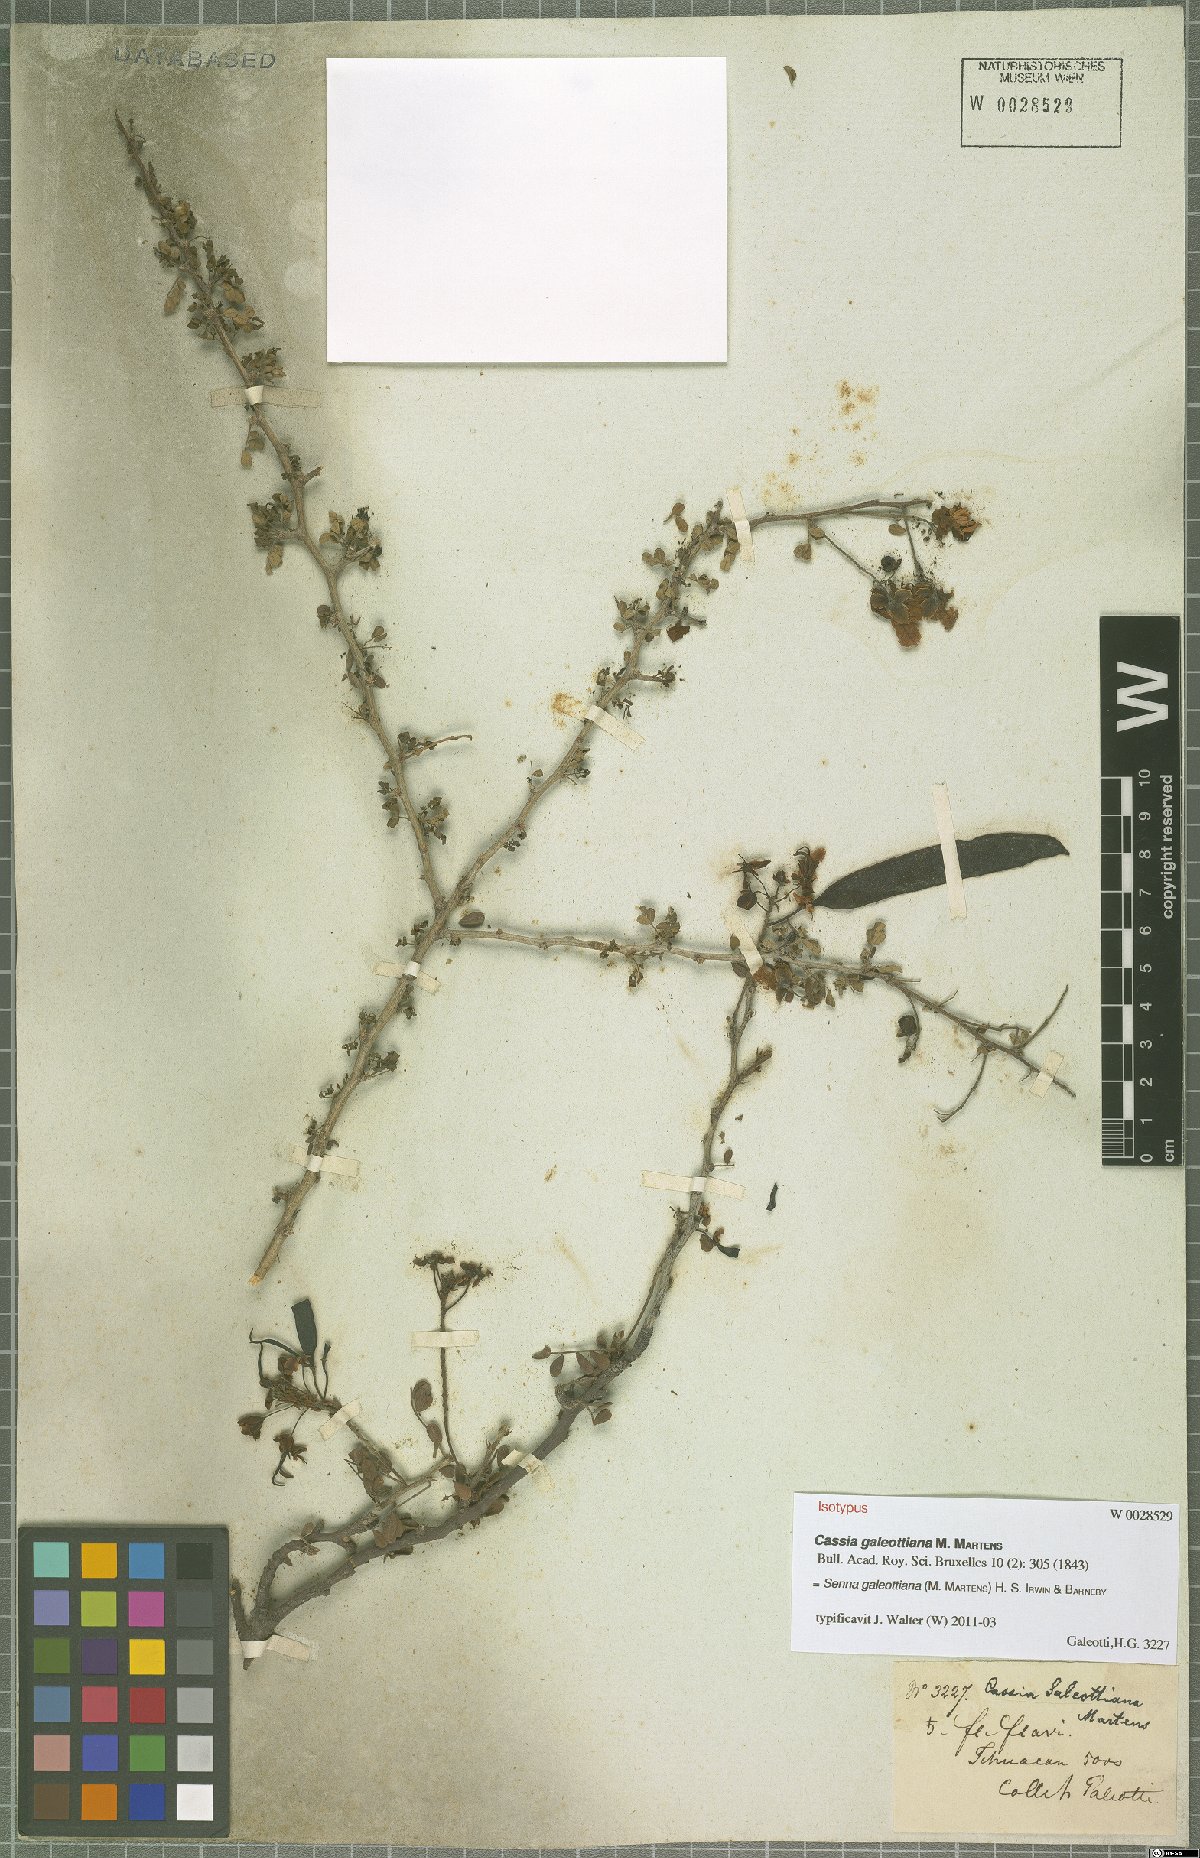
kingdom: Plantae
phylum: Tracheophyta
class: Magnoliopsida
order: Fabales
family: Fabaceae
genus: Senna
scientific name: Senna galeottiana
